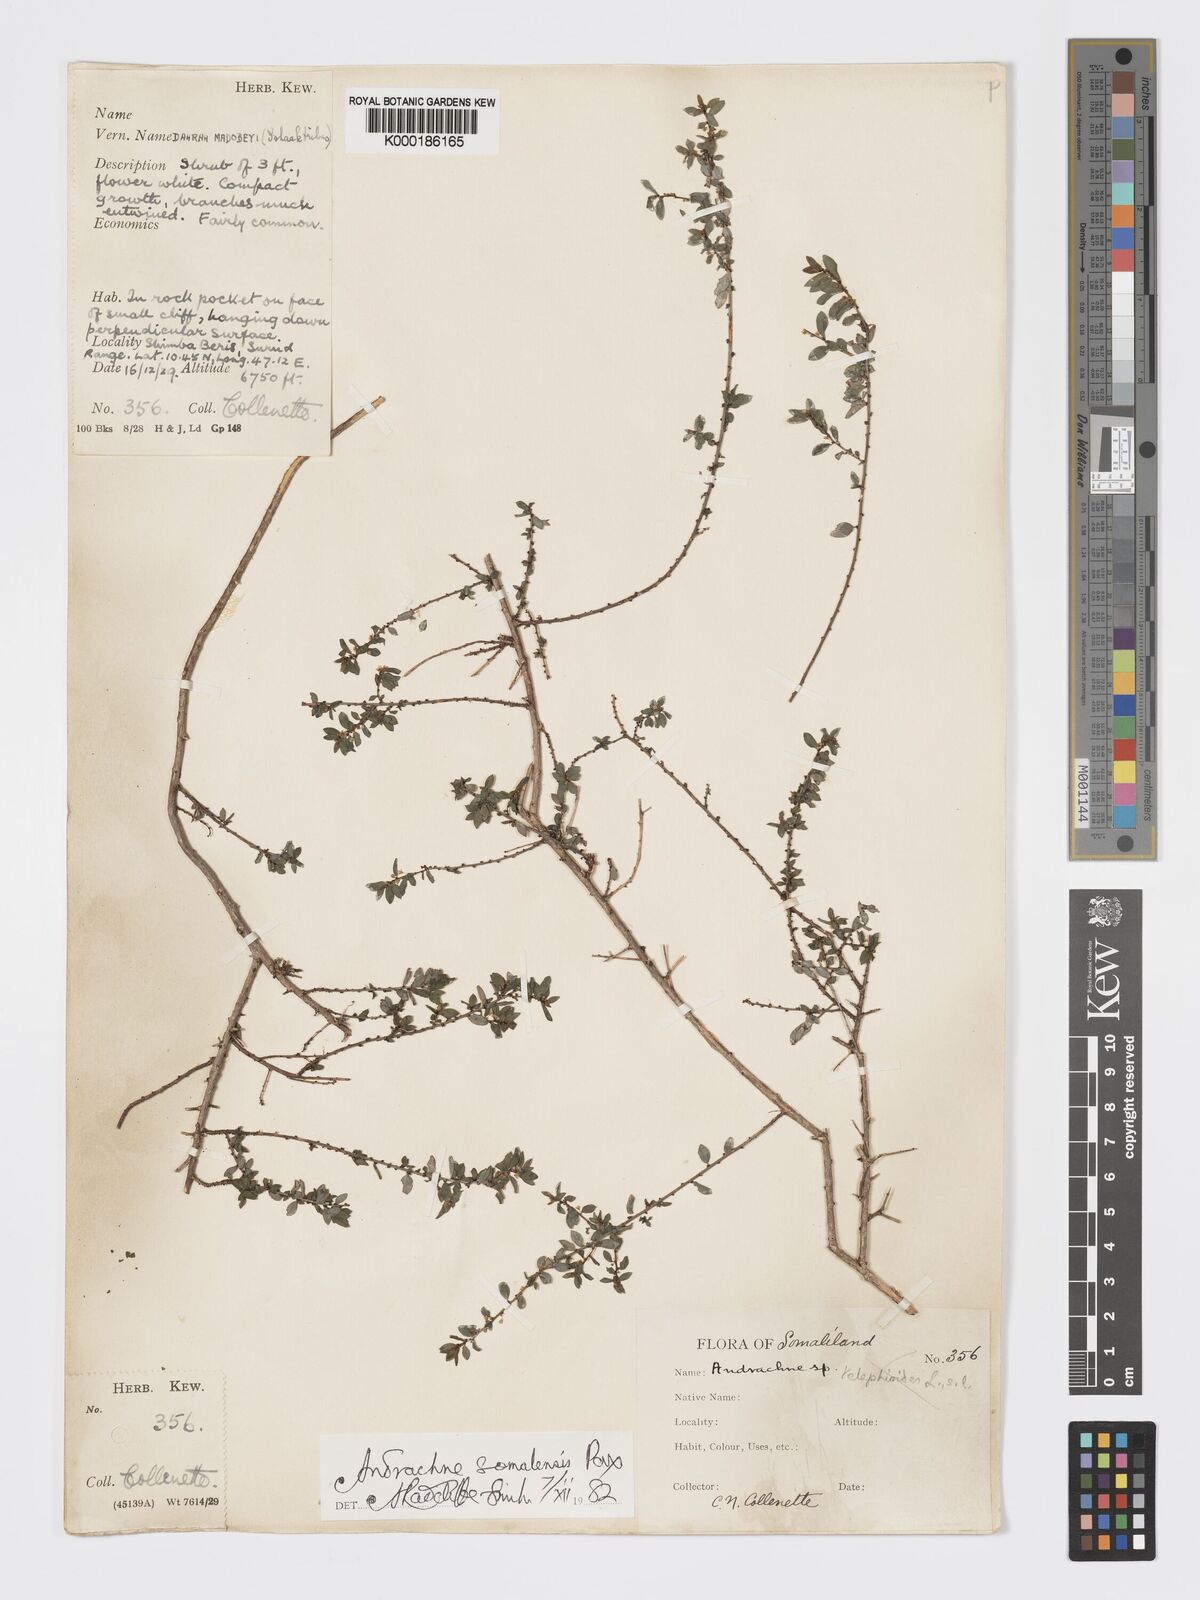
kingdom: Plantae
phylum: Tracheophyta
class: Magnoliopsida
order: Malpighiales
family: Phyllanthaceae
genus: Andrachne
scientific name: Andrachne schweinfurthii
